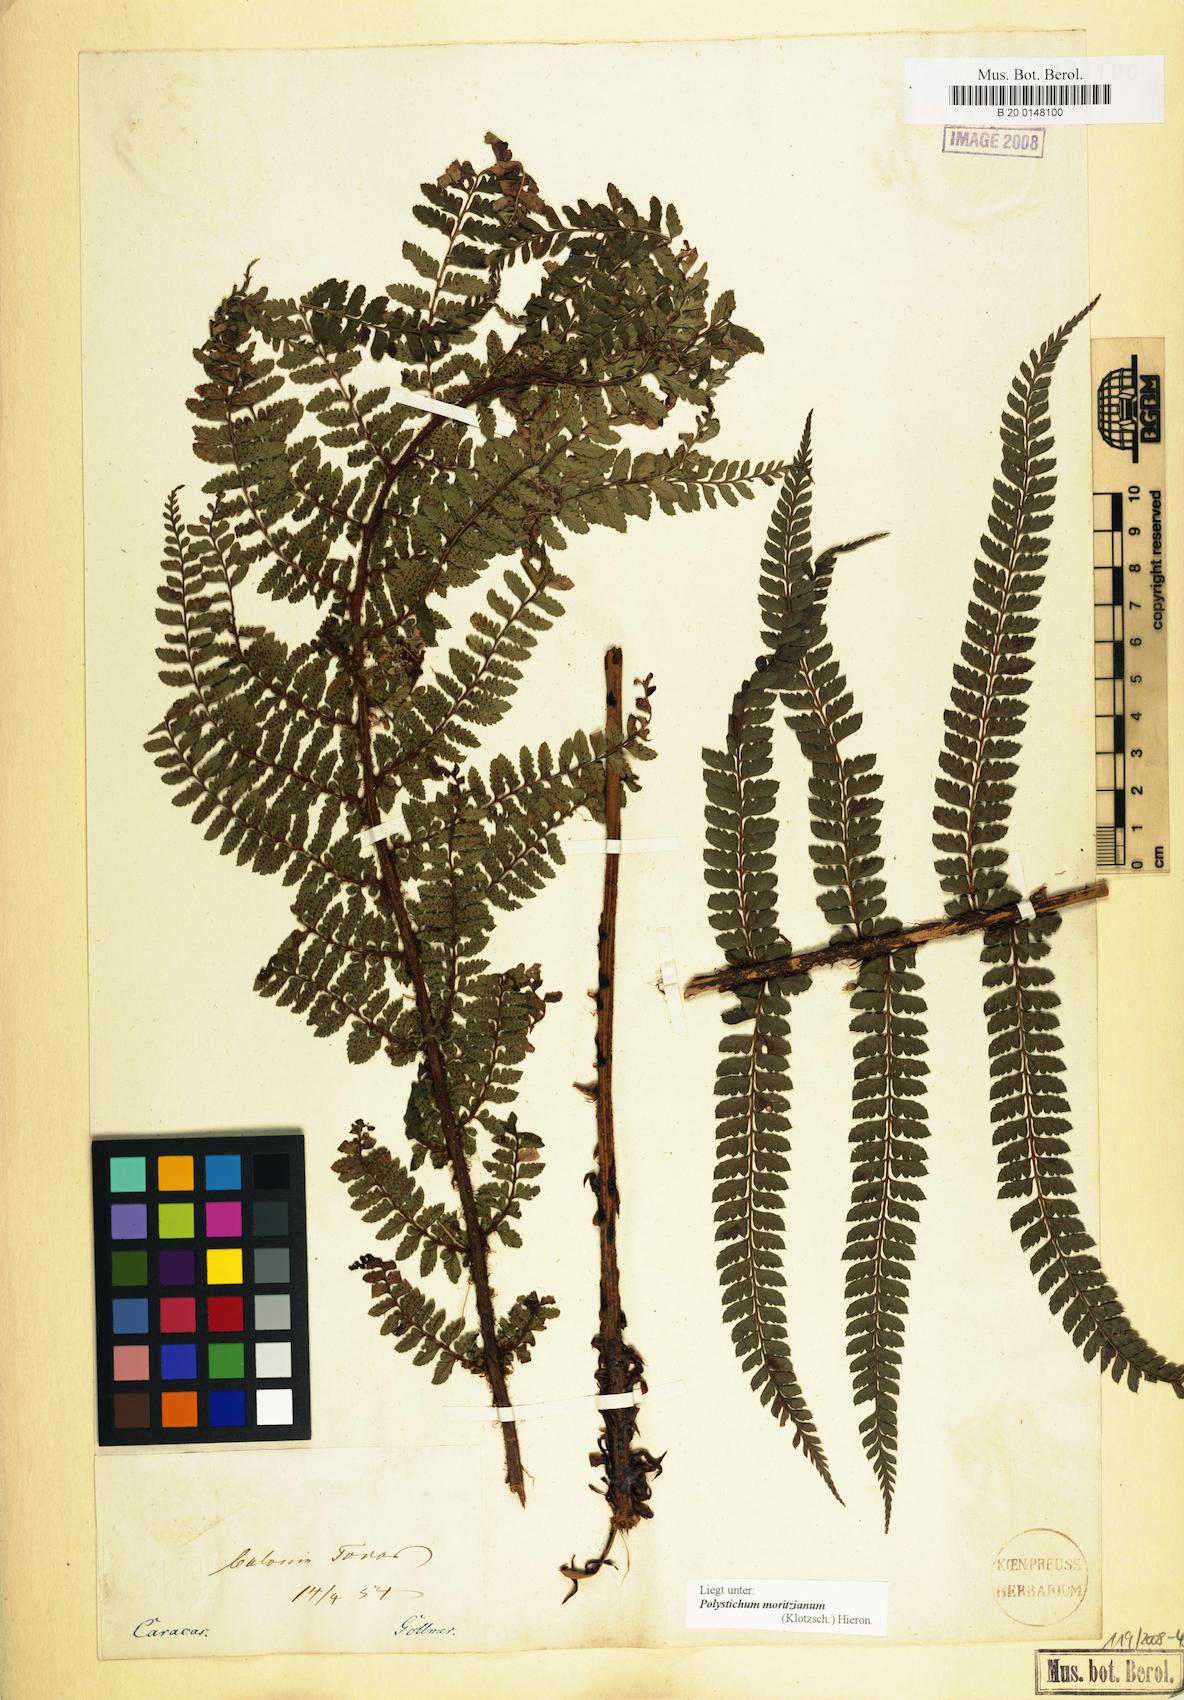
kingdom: Plantae
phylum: Tracheophyta
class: Polypodiopsida
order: Polypodiales
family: Dryopteridaceae
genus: Polystichum
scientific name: Polystichum muricatum
